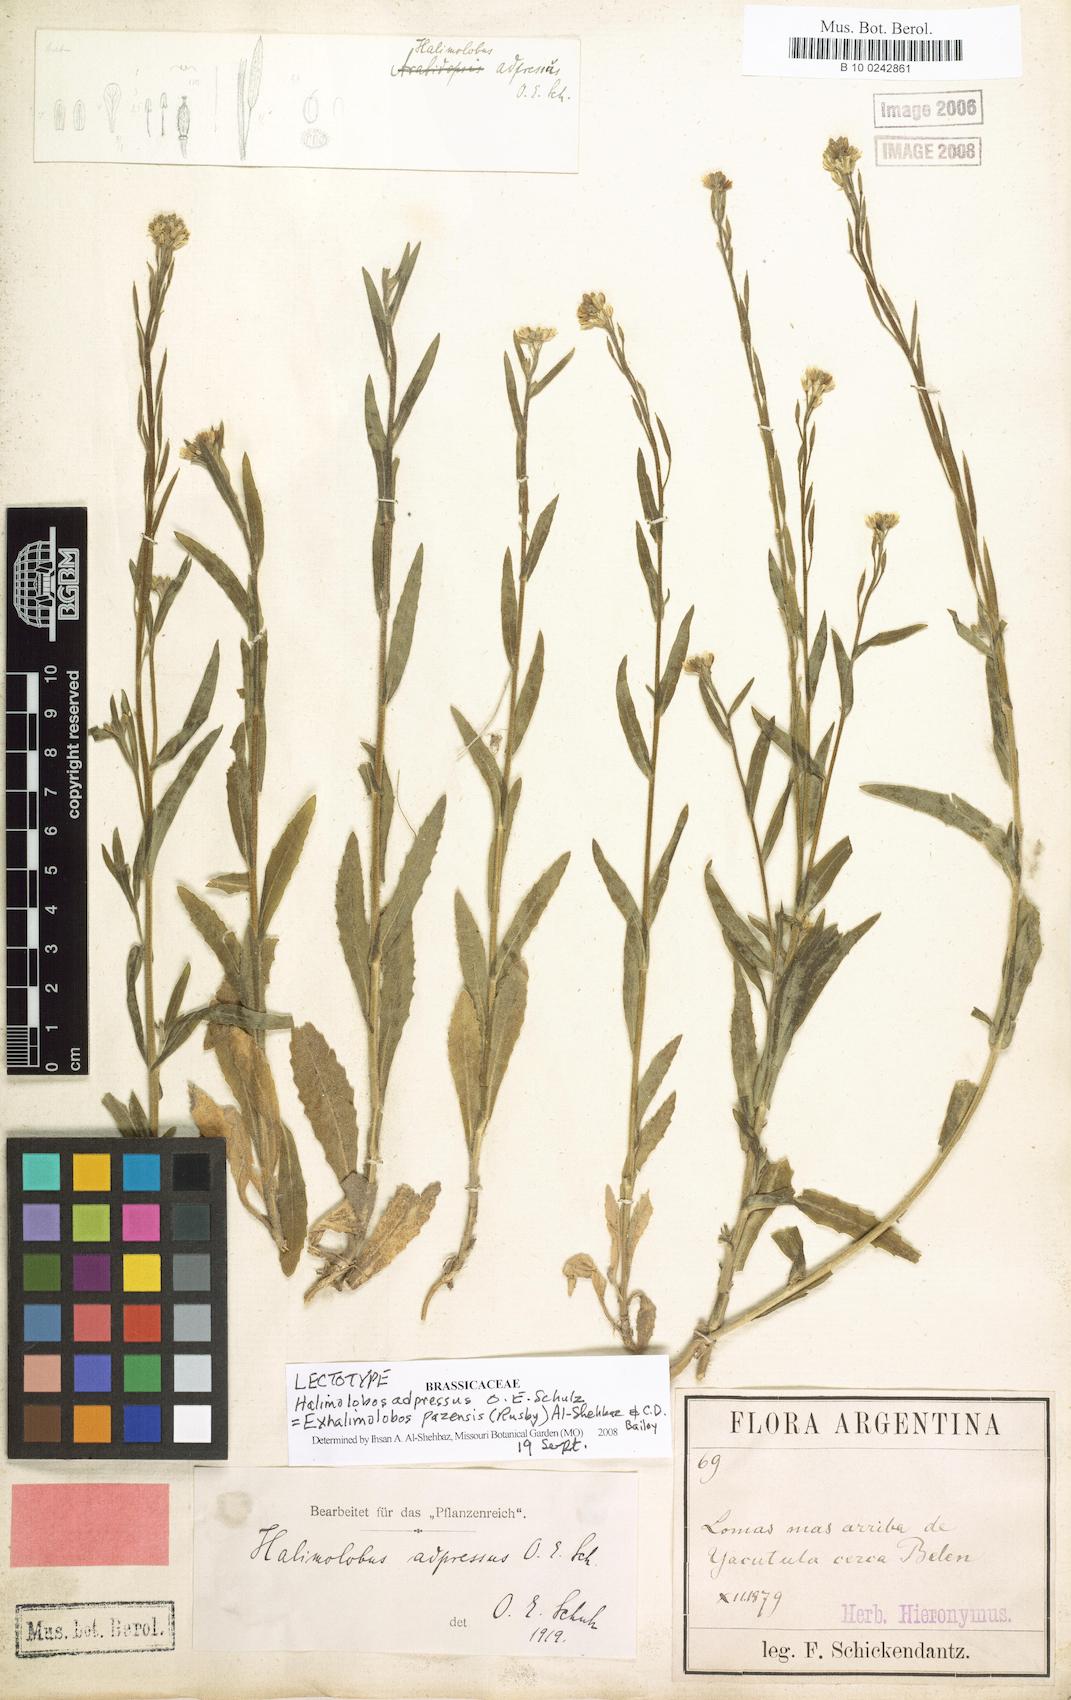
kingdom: Plantae
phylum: Tracheophyta
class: Magnoliopsida
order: Brassicales
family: Brassicaceae
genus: Exhalimolobos
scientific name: Exhalimolobos pazense
